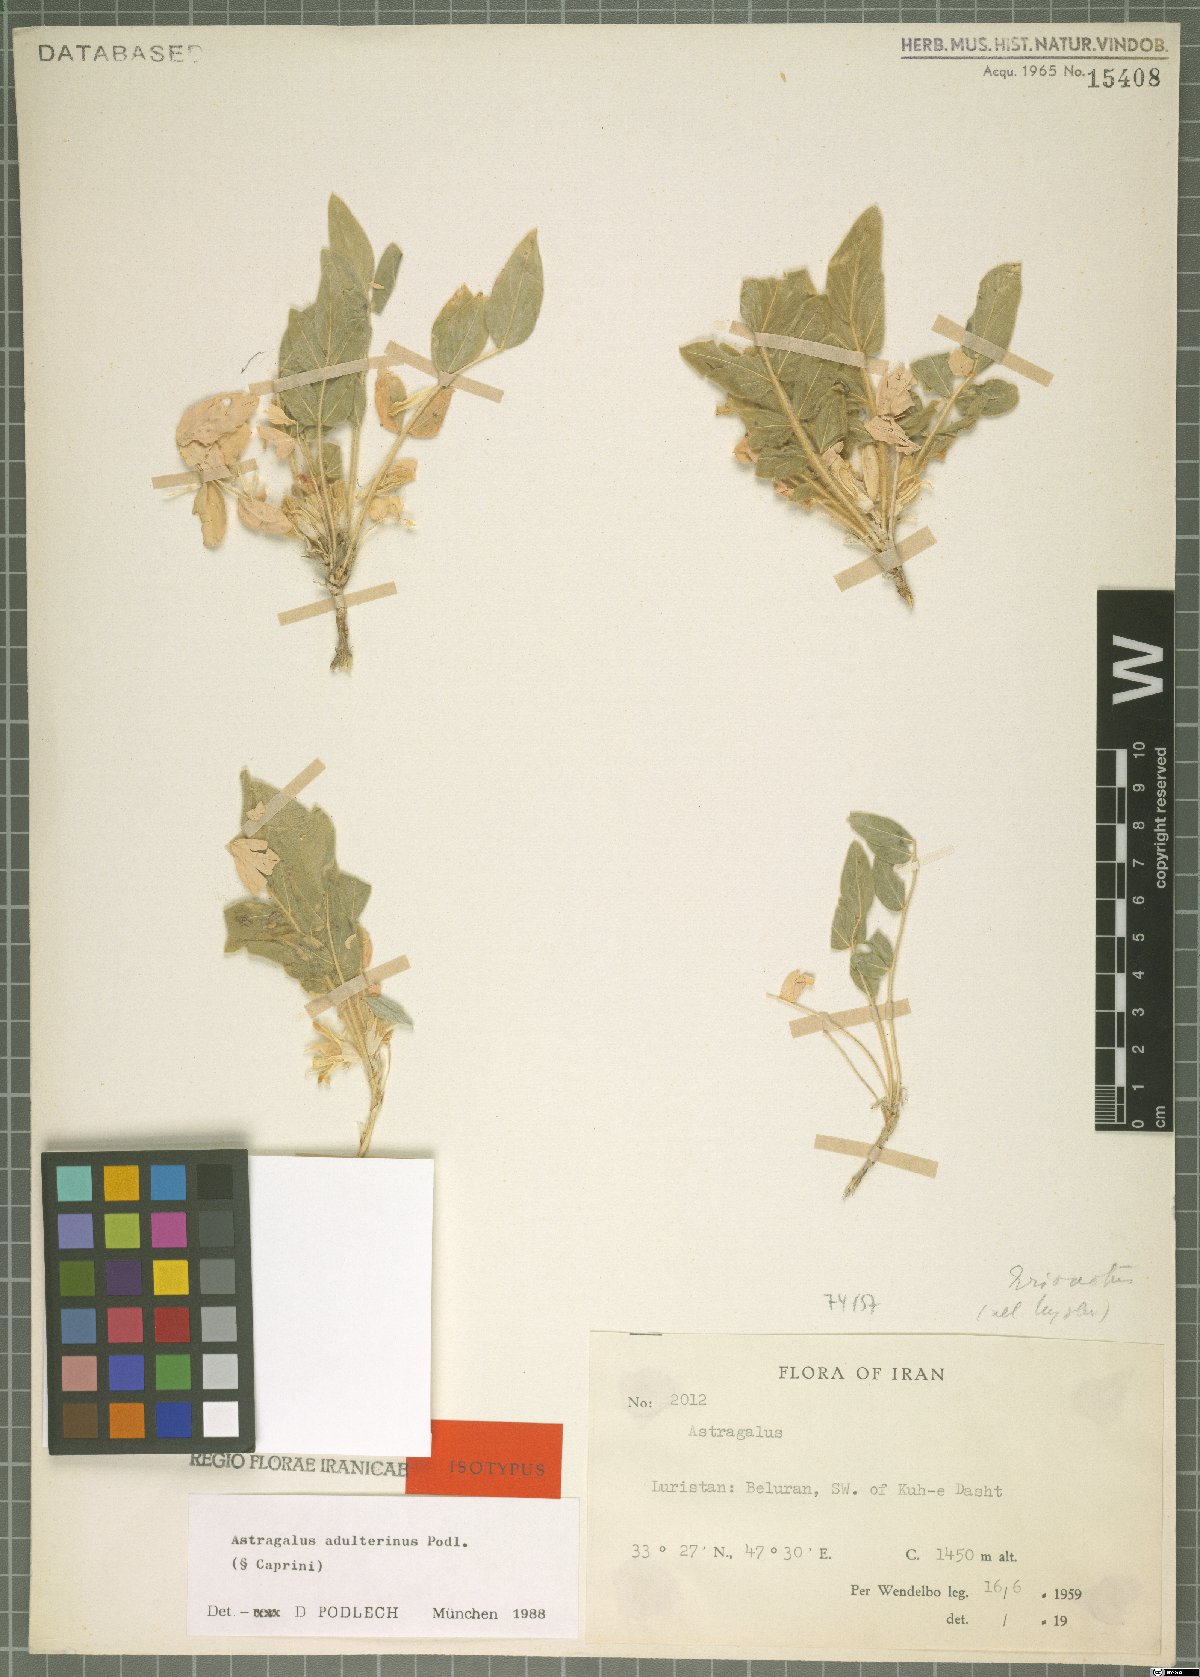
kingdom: Plantae
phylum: Tracheophyta
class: Magnoliopsida
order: Fabales
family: Fabaceae
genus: Astragalus
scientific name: Astragalus adulterinus
